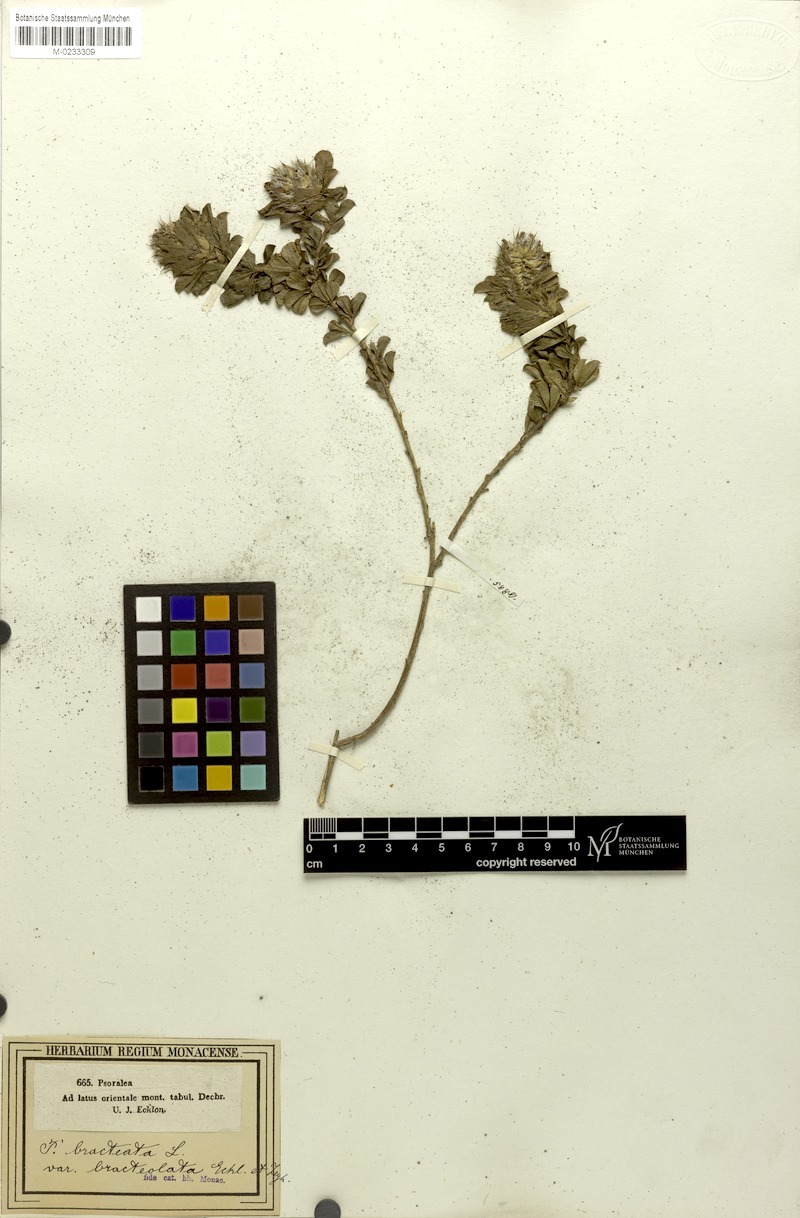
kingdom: Plantae
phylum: Tracheophyta
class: Magnoliopsida
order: Fabales
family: Fabaceae
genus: Psoralea
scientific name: Psoralea bracteolata
